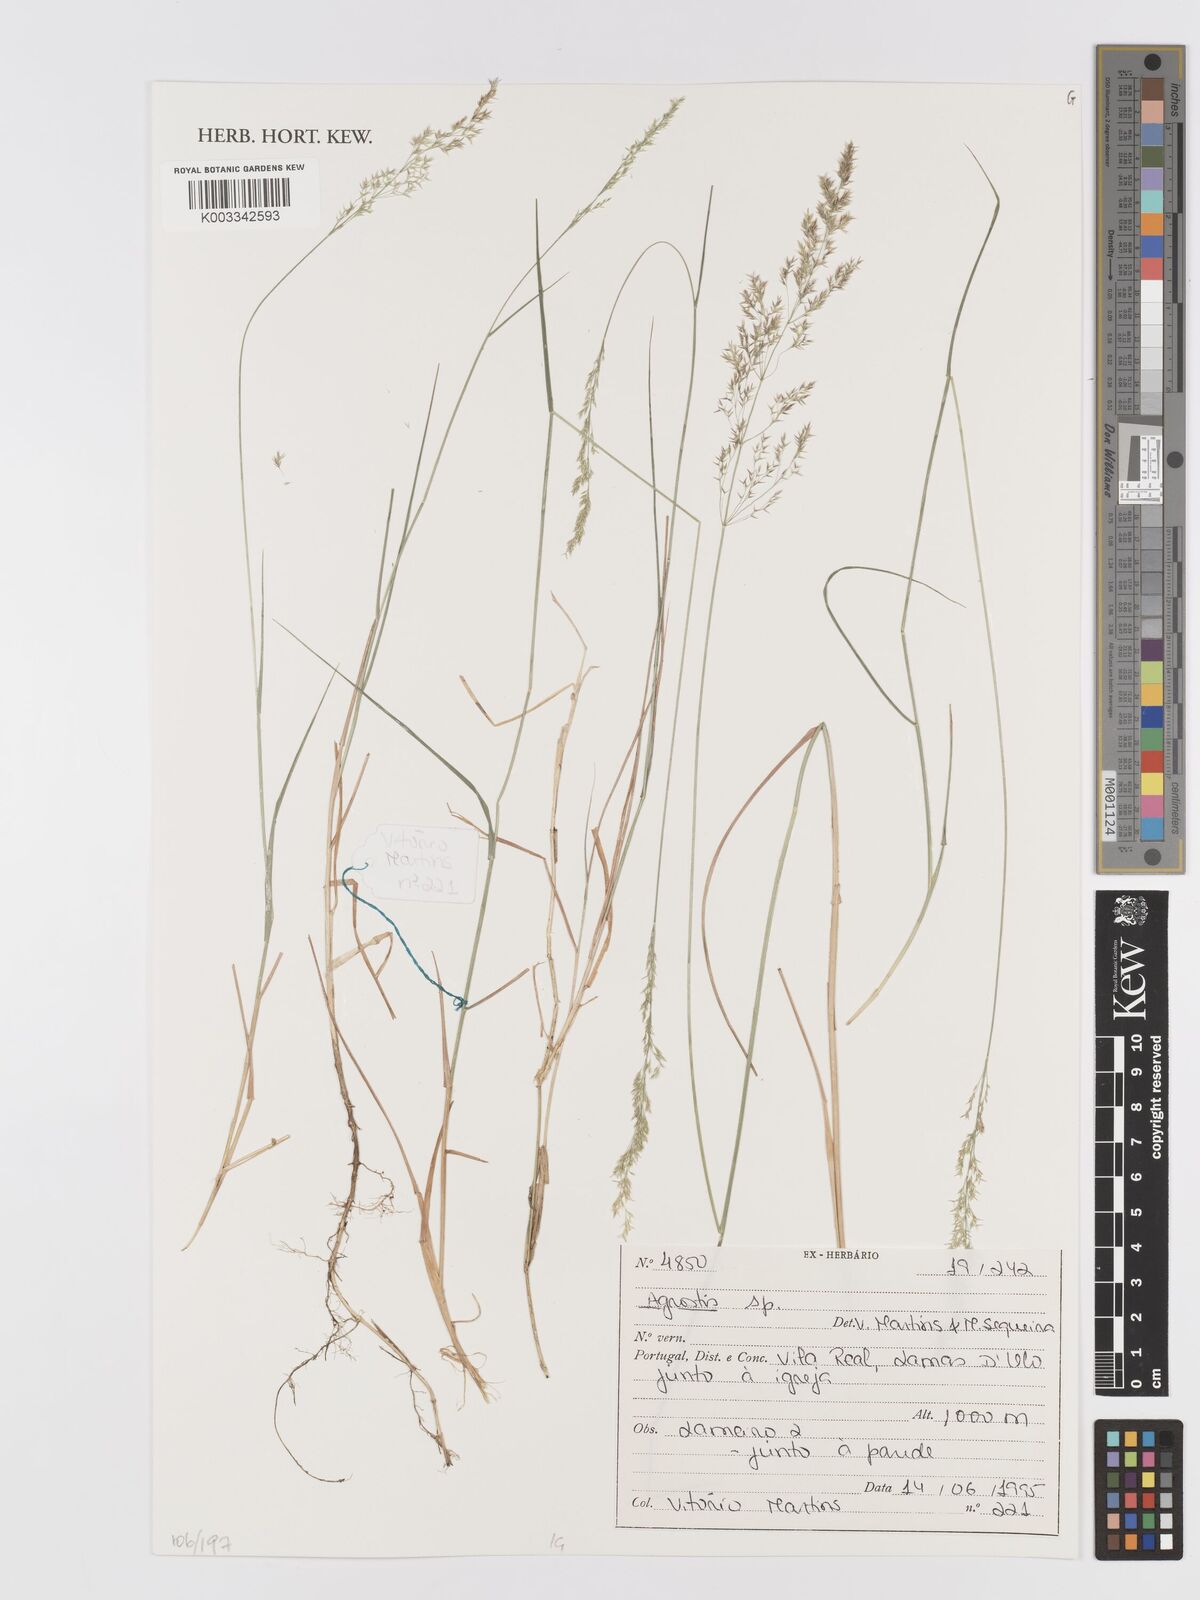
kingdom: Plantae
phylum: Tracheophyta
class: Liliopsida
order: Poales
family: Poaceae
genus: Agrostis
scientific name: Agrostis
